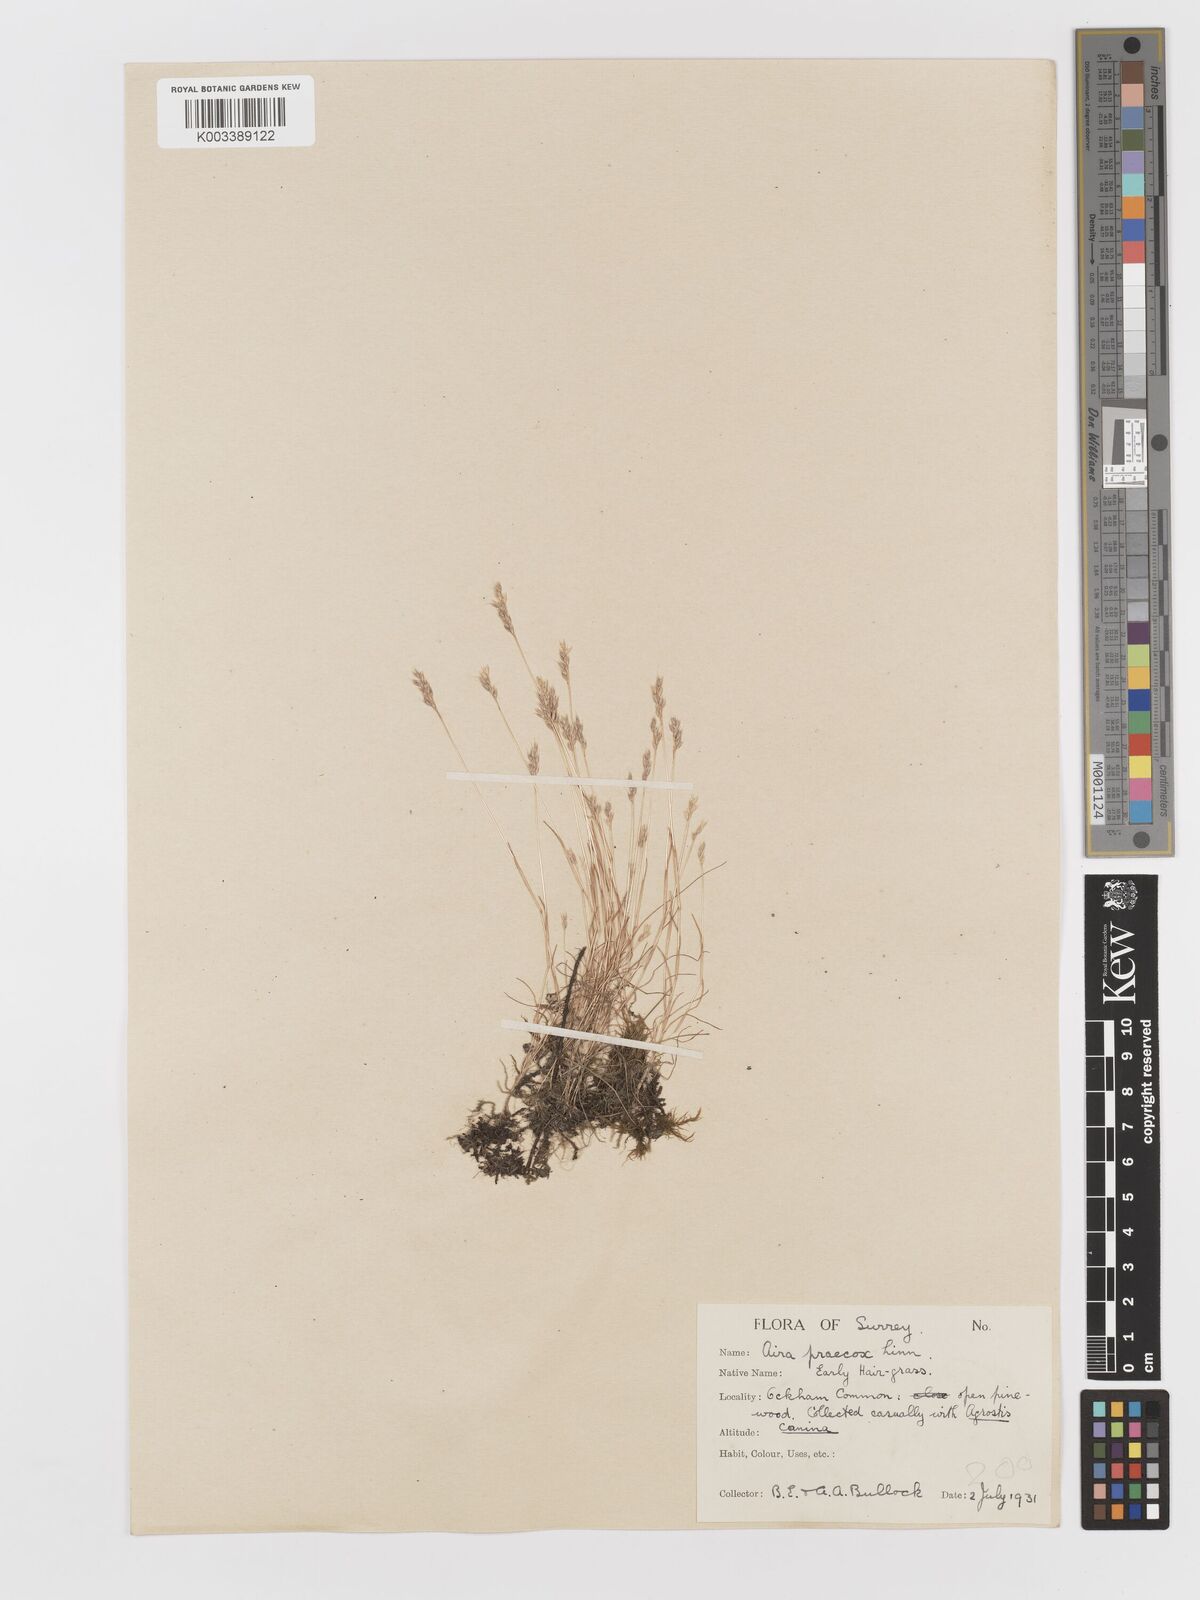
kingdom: Plantae
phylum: Tracheophyta
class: Liliopsida
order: Poales
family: Poaceae
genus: Aira
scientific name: Aira praecox
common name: Early hair-grass
